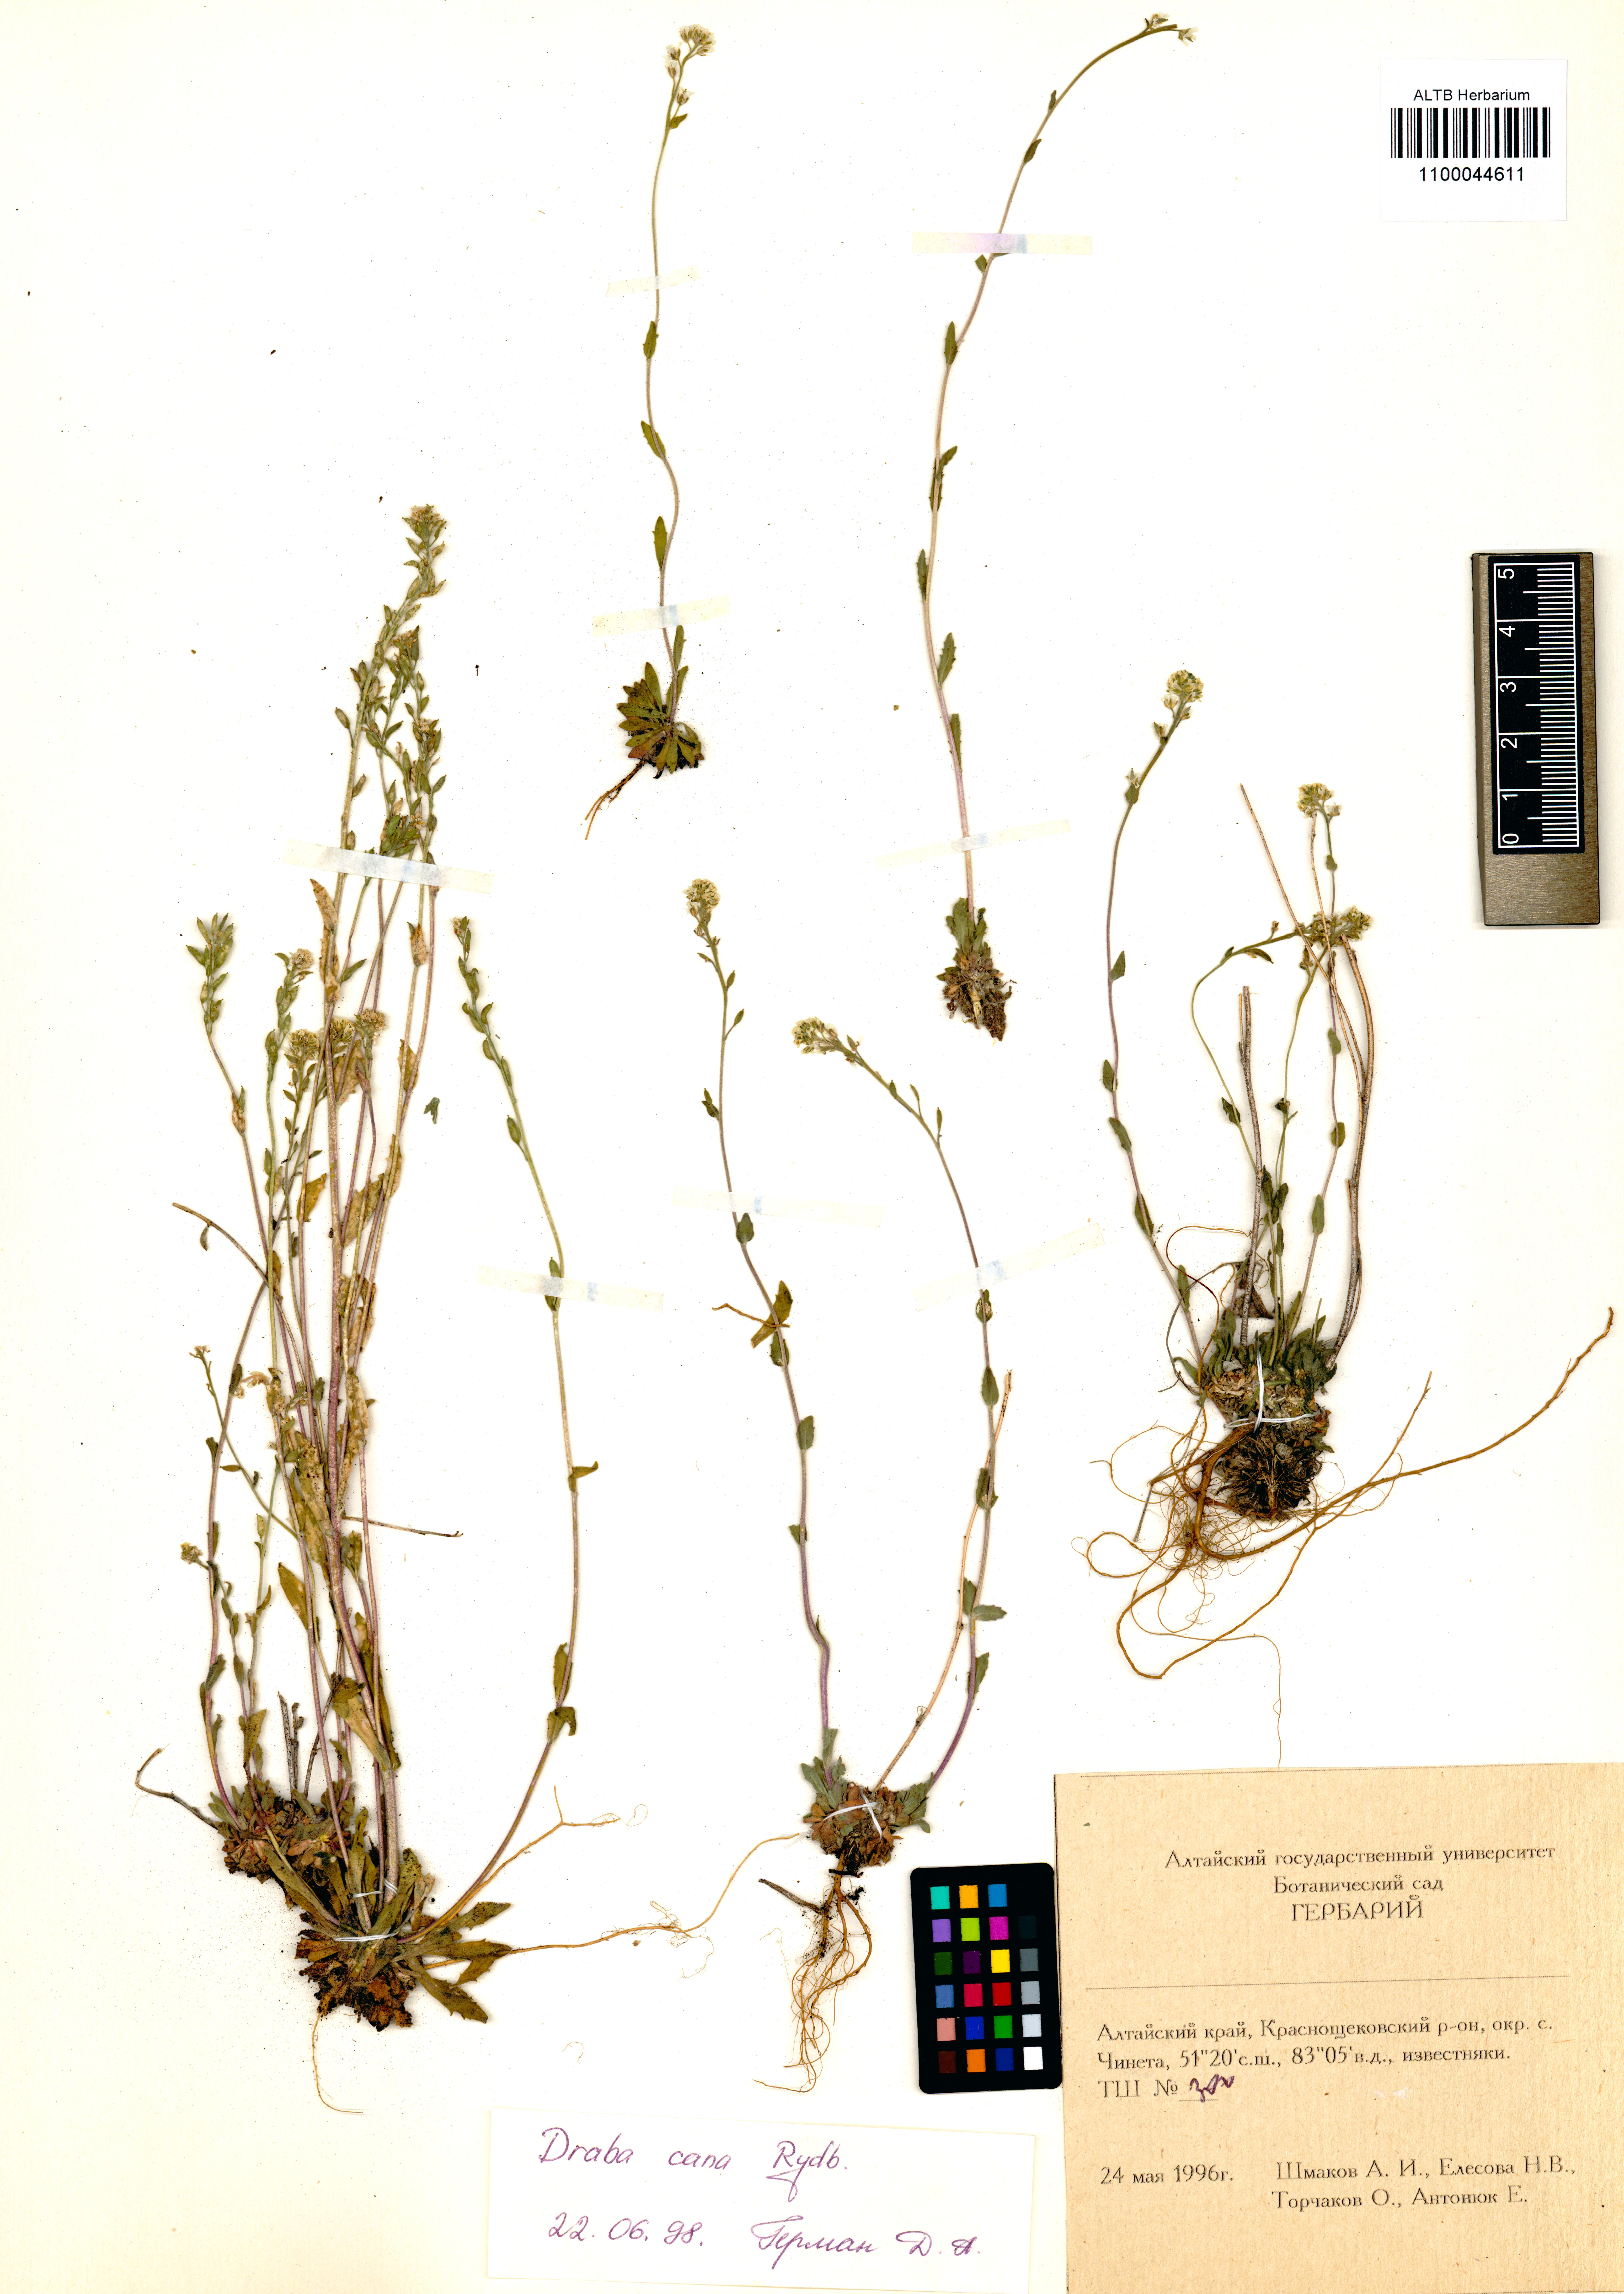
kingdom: Plantae
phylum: Tracheophyta
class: Magnoliopsida
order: Brassicales
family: Brassicaceae
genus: Draba
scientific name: Draba cana
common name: Hoary draba
